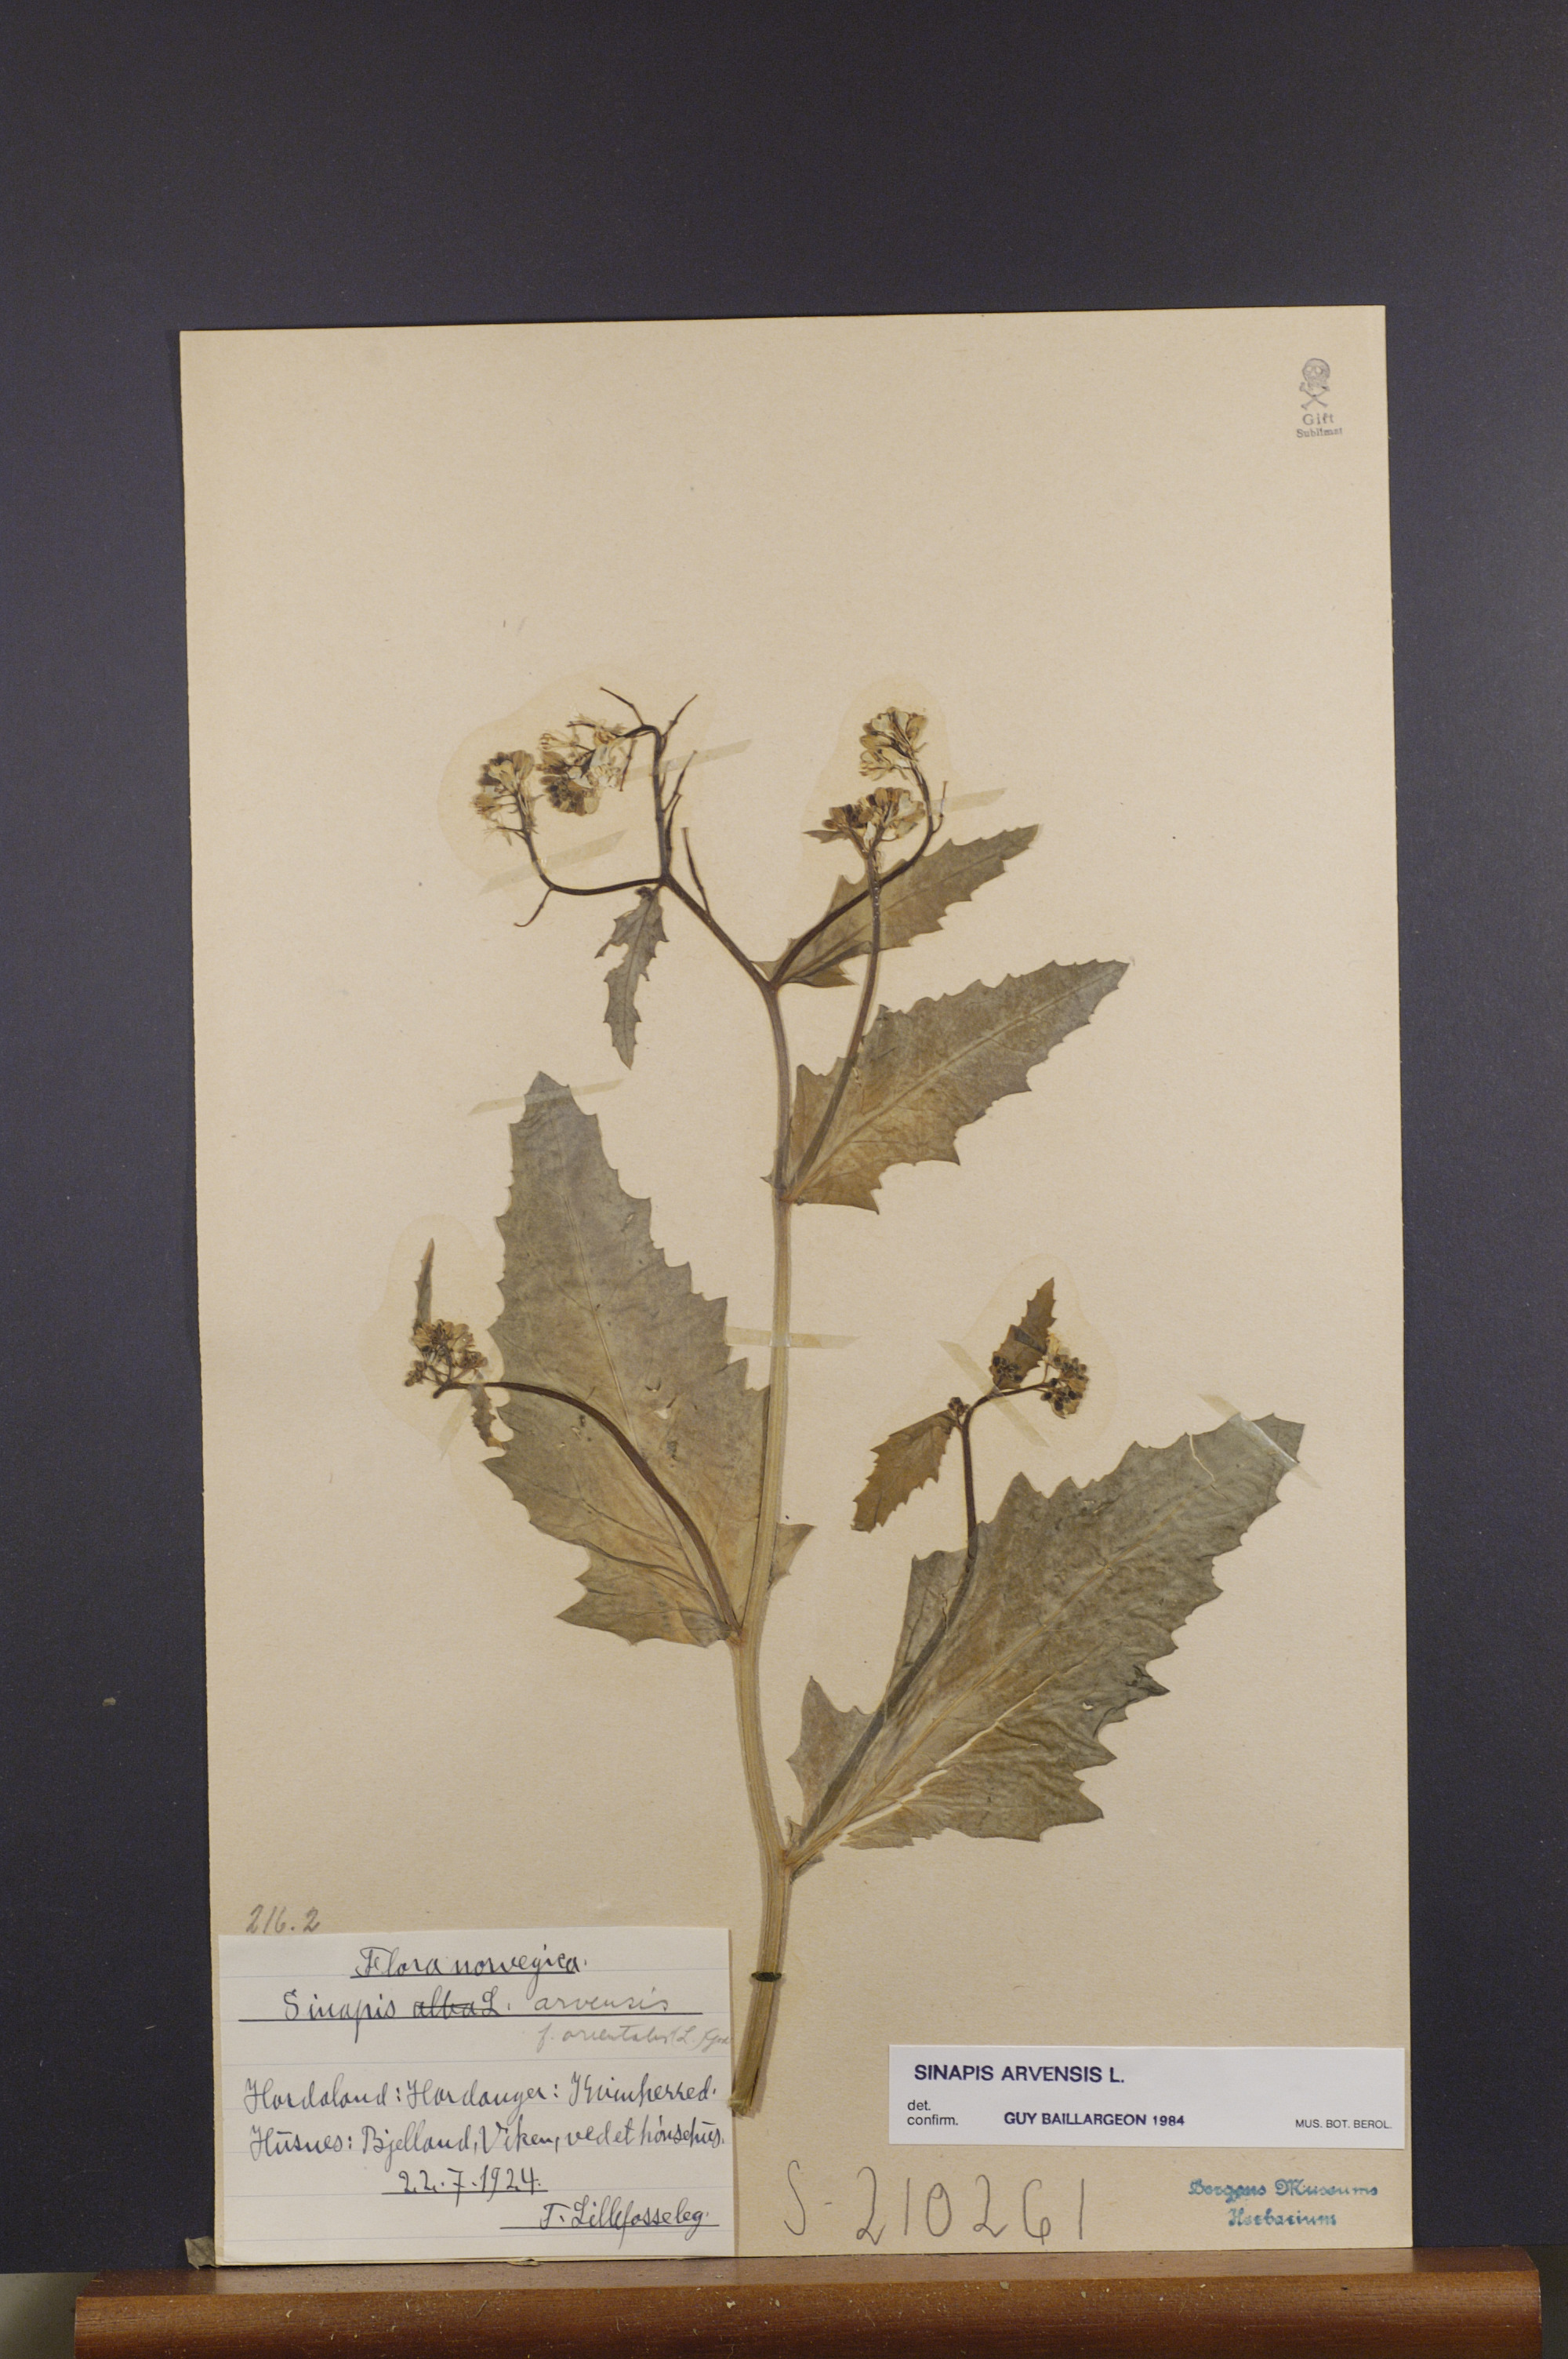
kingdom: Plantae
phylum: Tracheophyta
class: Magnoliopsida
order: Brassicales
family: Brassicaceae
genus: Sinapis
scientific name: Sinapis arvensis
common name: Charlock
